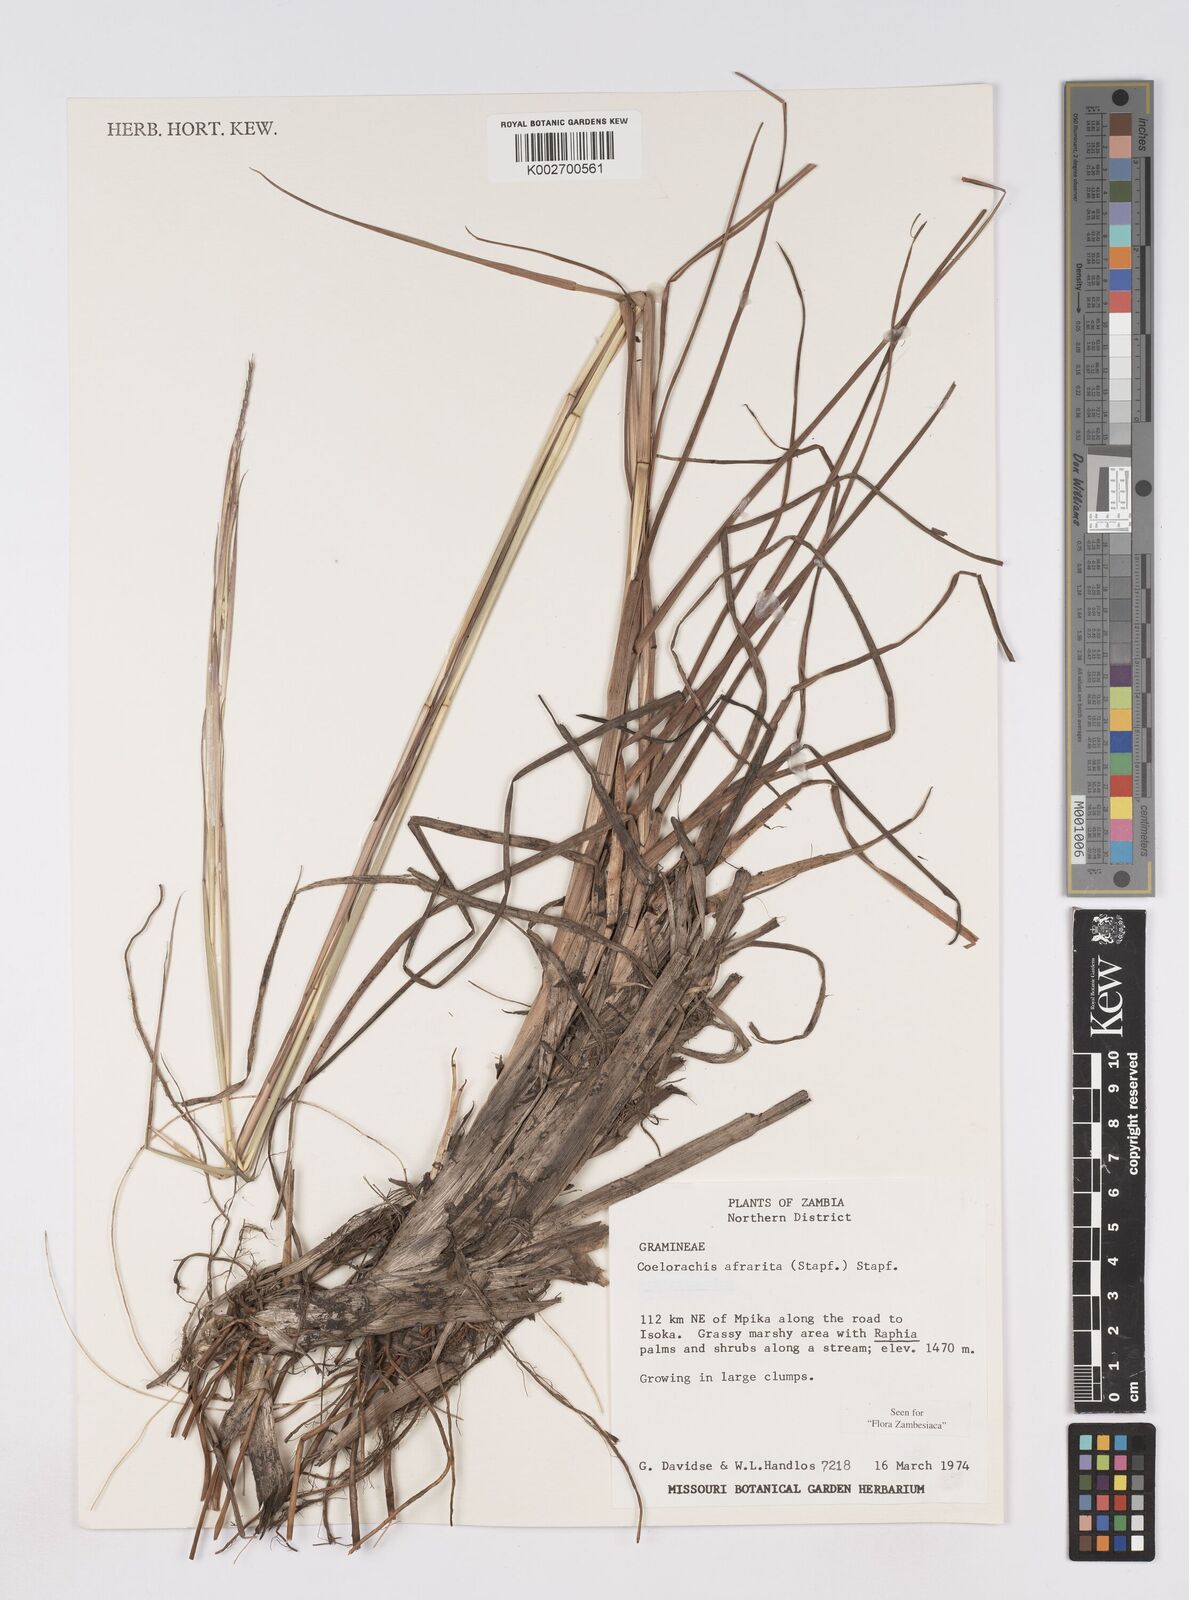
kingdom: Plantae
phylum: Tracheophyta
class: Liliopsida
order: Poales
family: Poaceae
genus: Rottboellia
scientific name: Rottboellia afraurita
